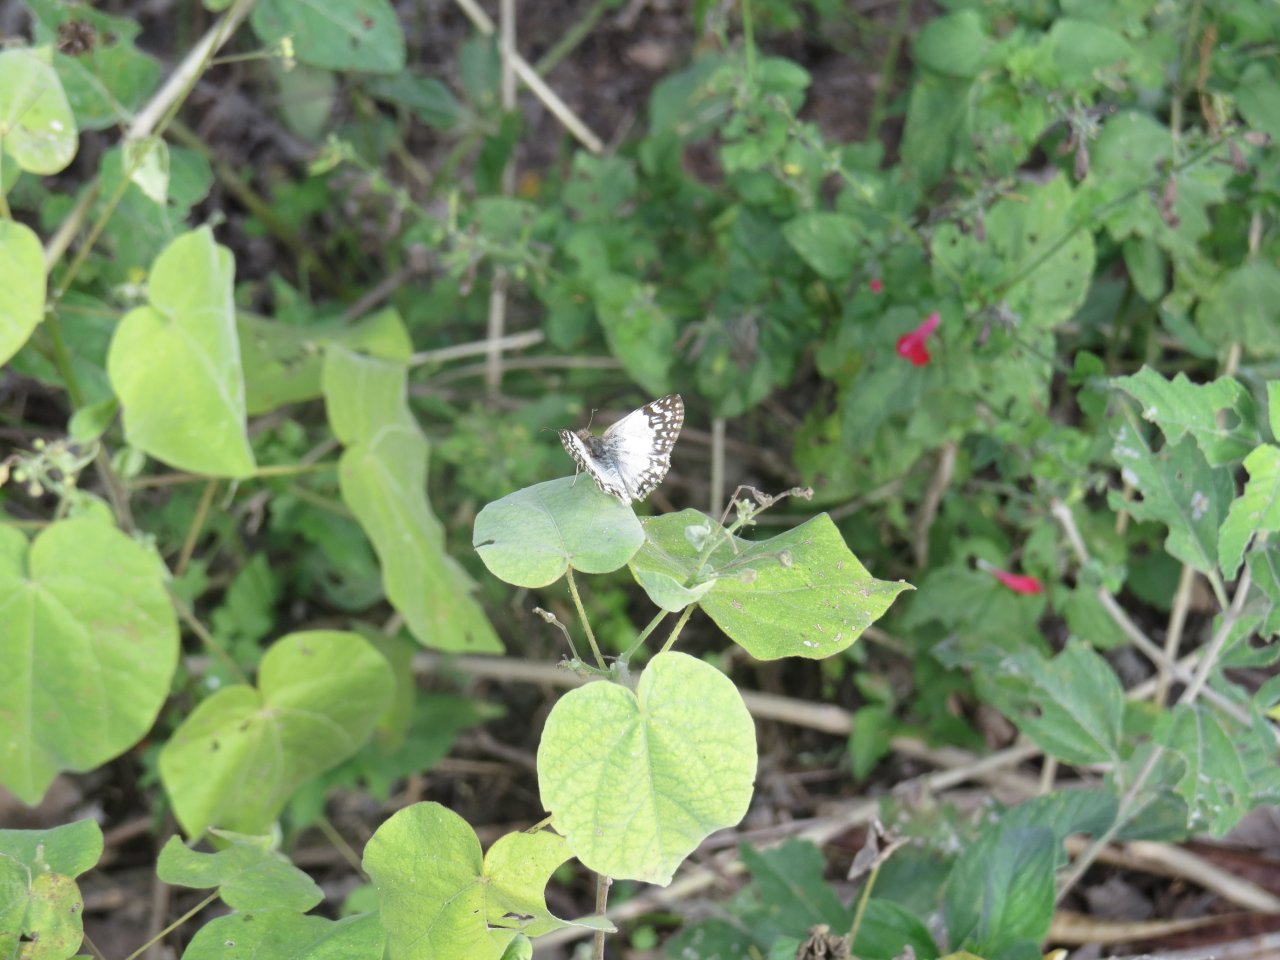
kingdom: Animalia
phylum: Arthropoda
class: Insecta
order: Lepidoptera
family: Hesperiidae
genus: Heliopetes
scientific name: Heliopetes sublinea
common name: East-Mexican White-Skipper
